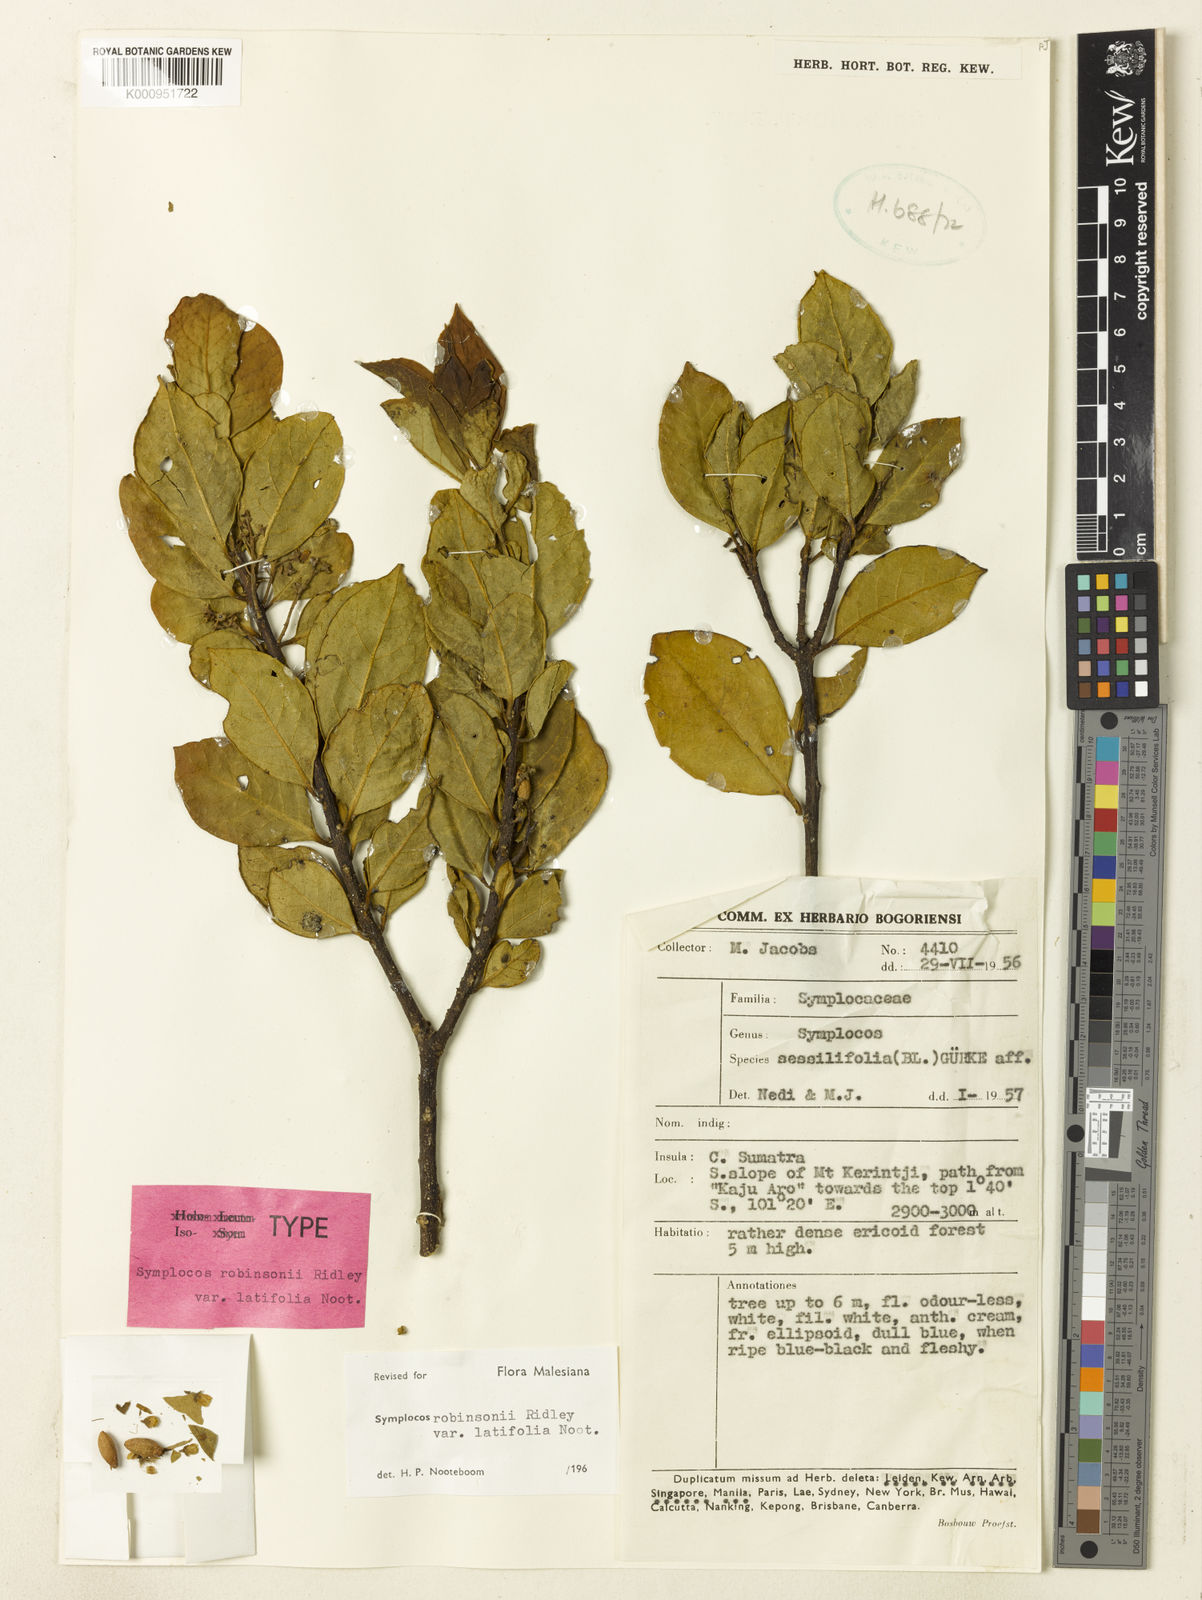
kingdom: Plantae
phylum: Tracheophyta
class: Magnoliopsida
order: Ericales
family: Symplocaceae
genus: Symplocos
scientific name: Symplocos robinsonii
